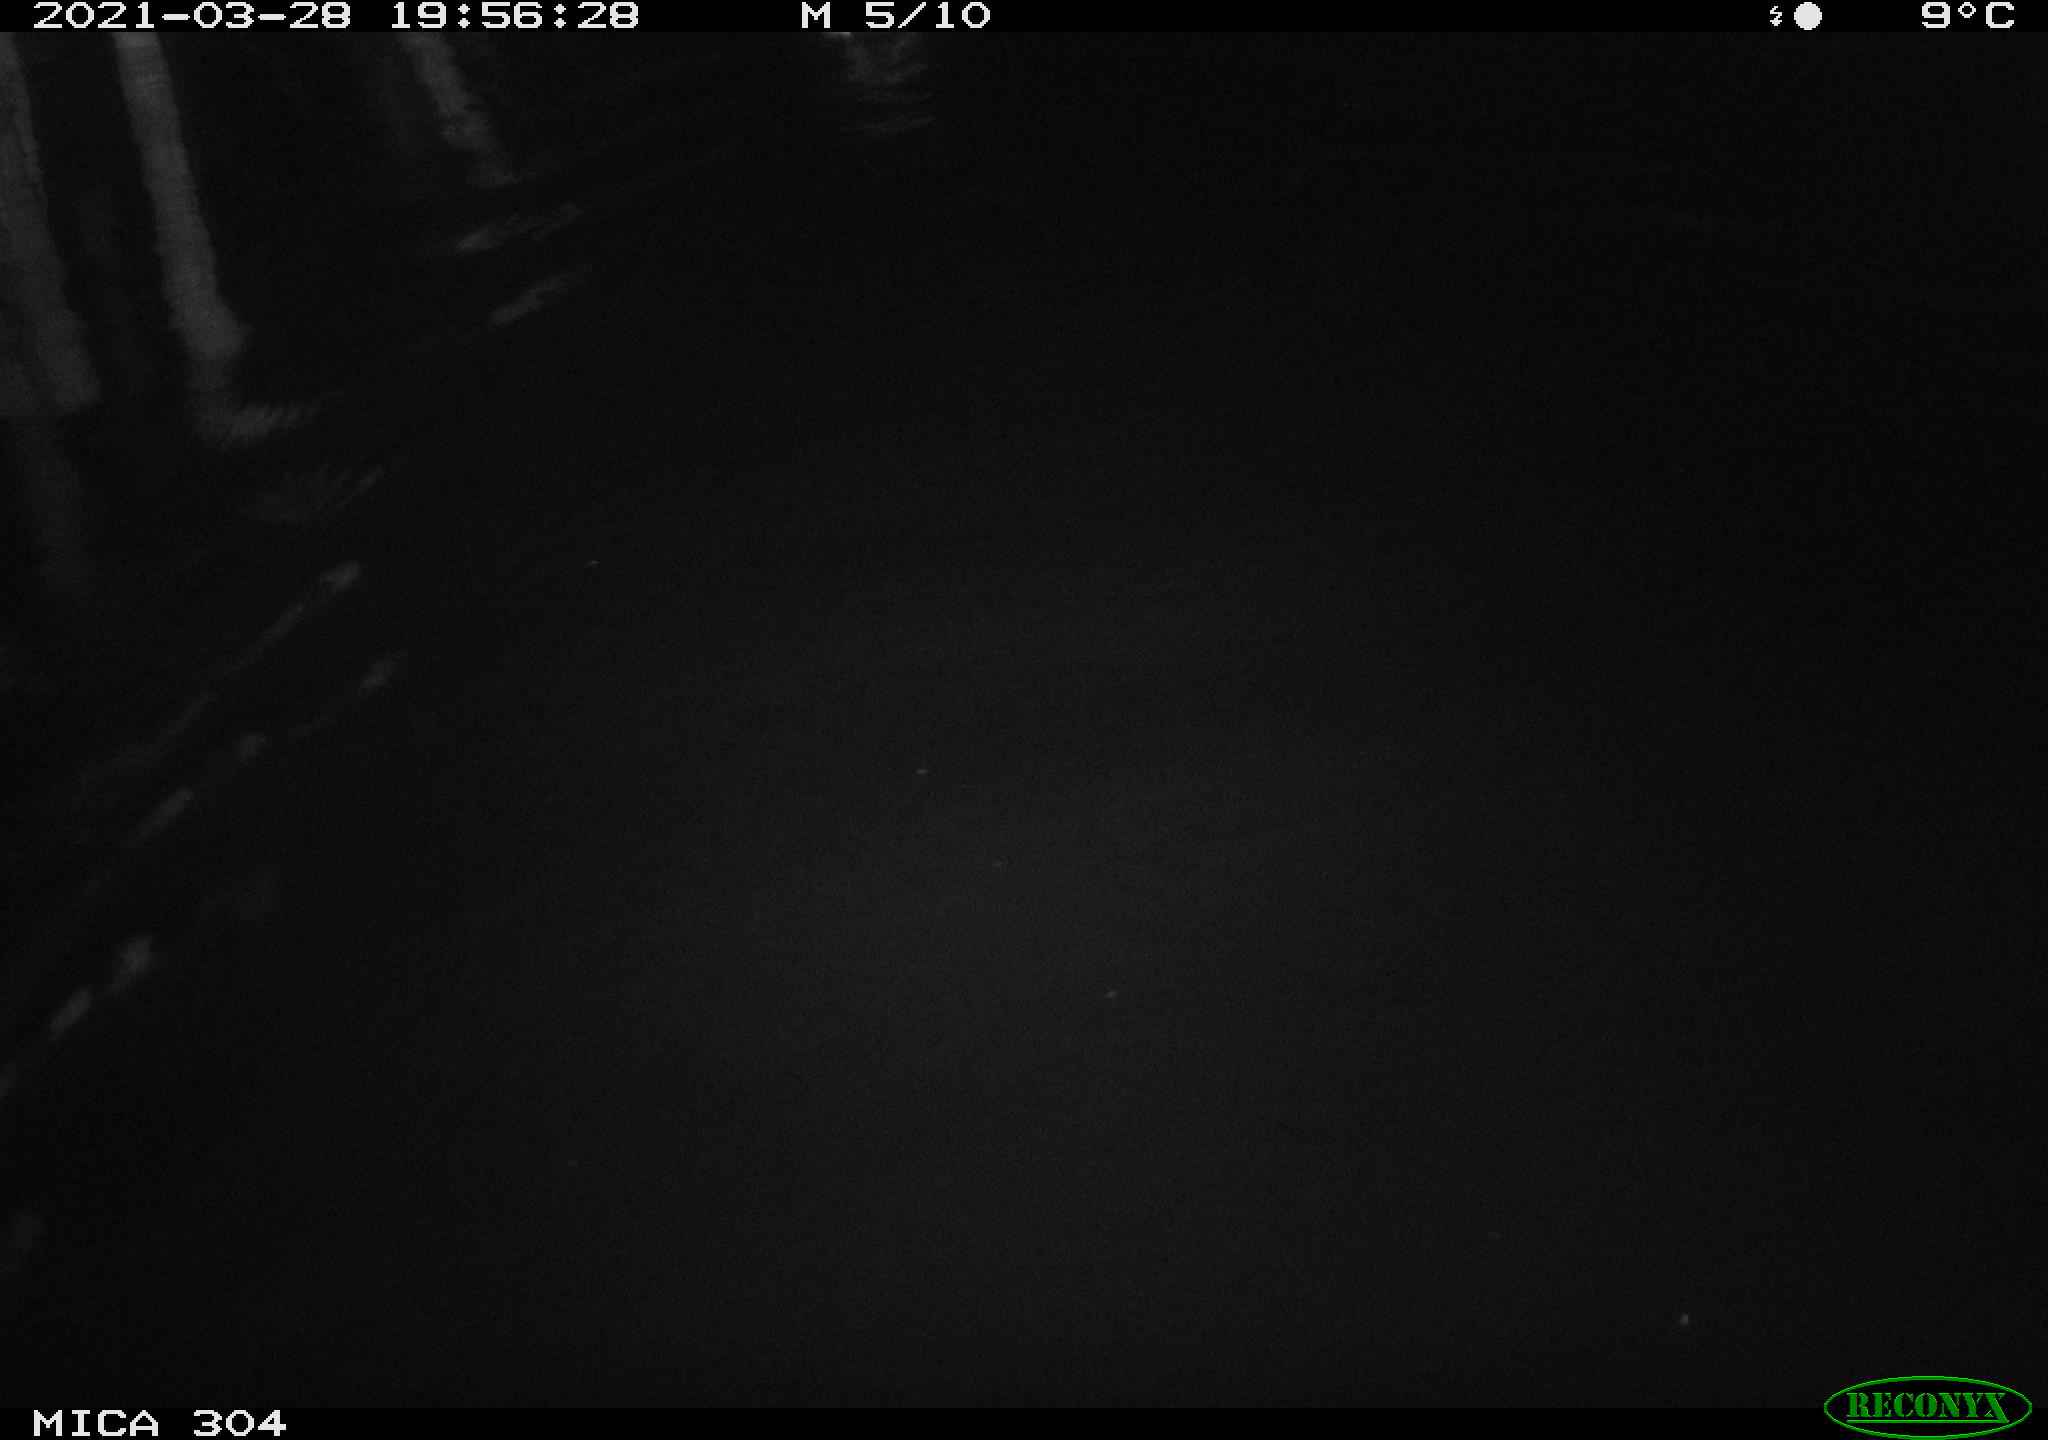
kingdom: Animalia
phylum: Chordata
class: Aves
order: Anseriformes
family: Anatidae
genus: Anas
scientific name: Anas platyrhynchos
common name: Mallard
